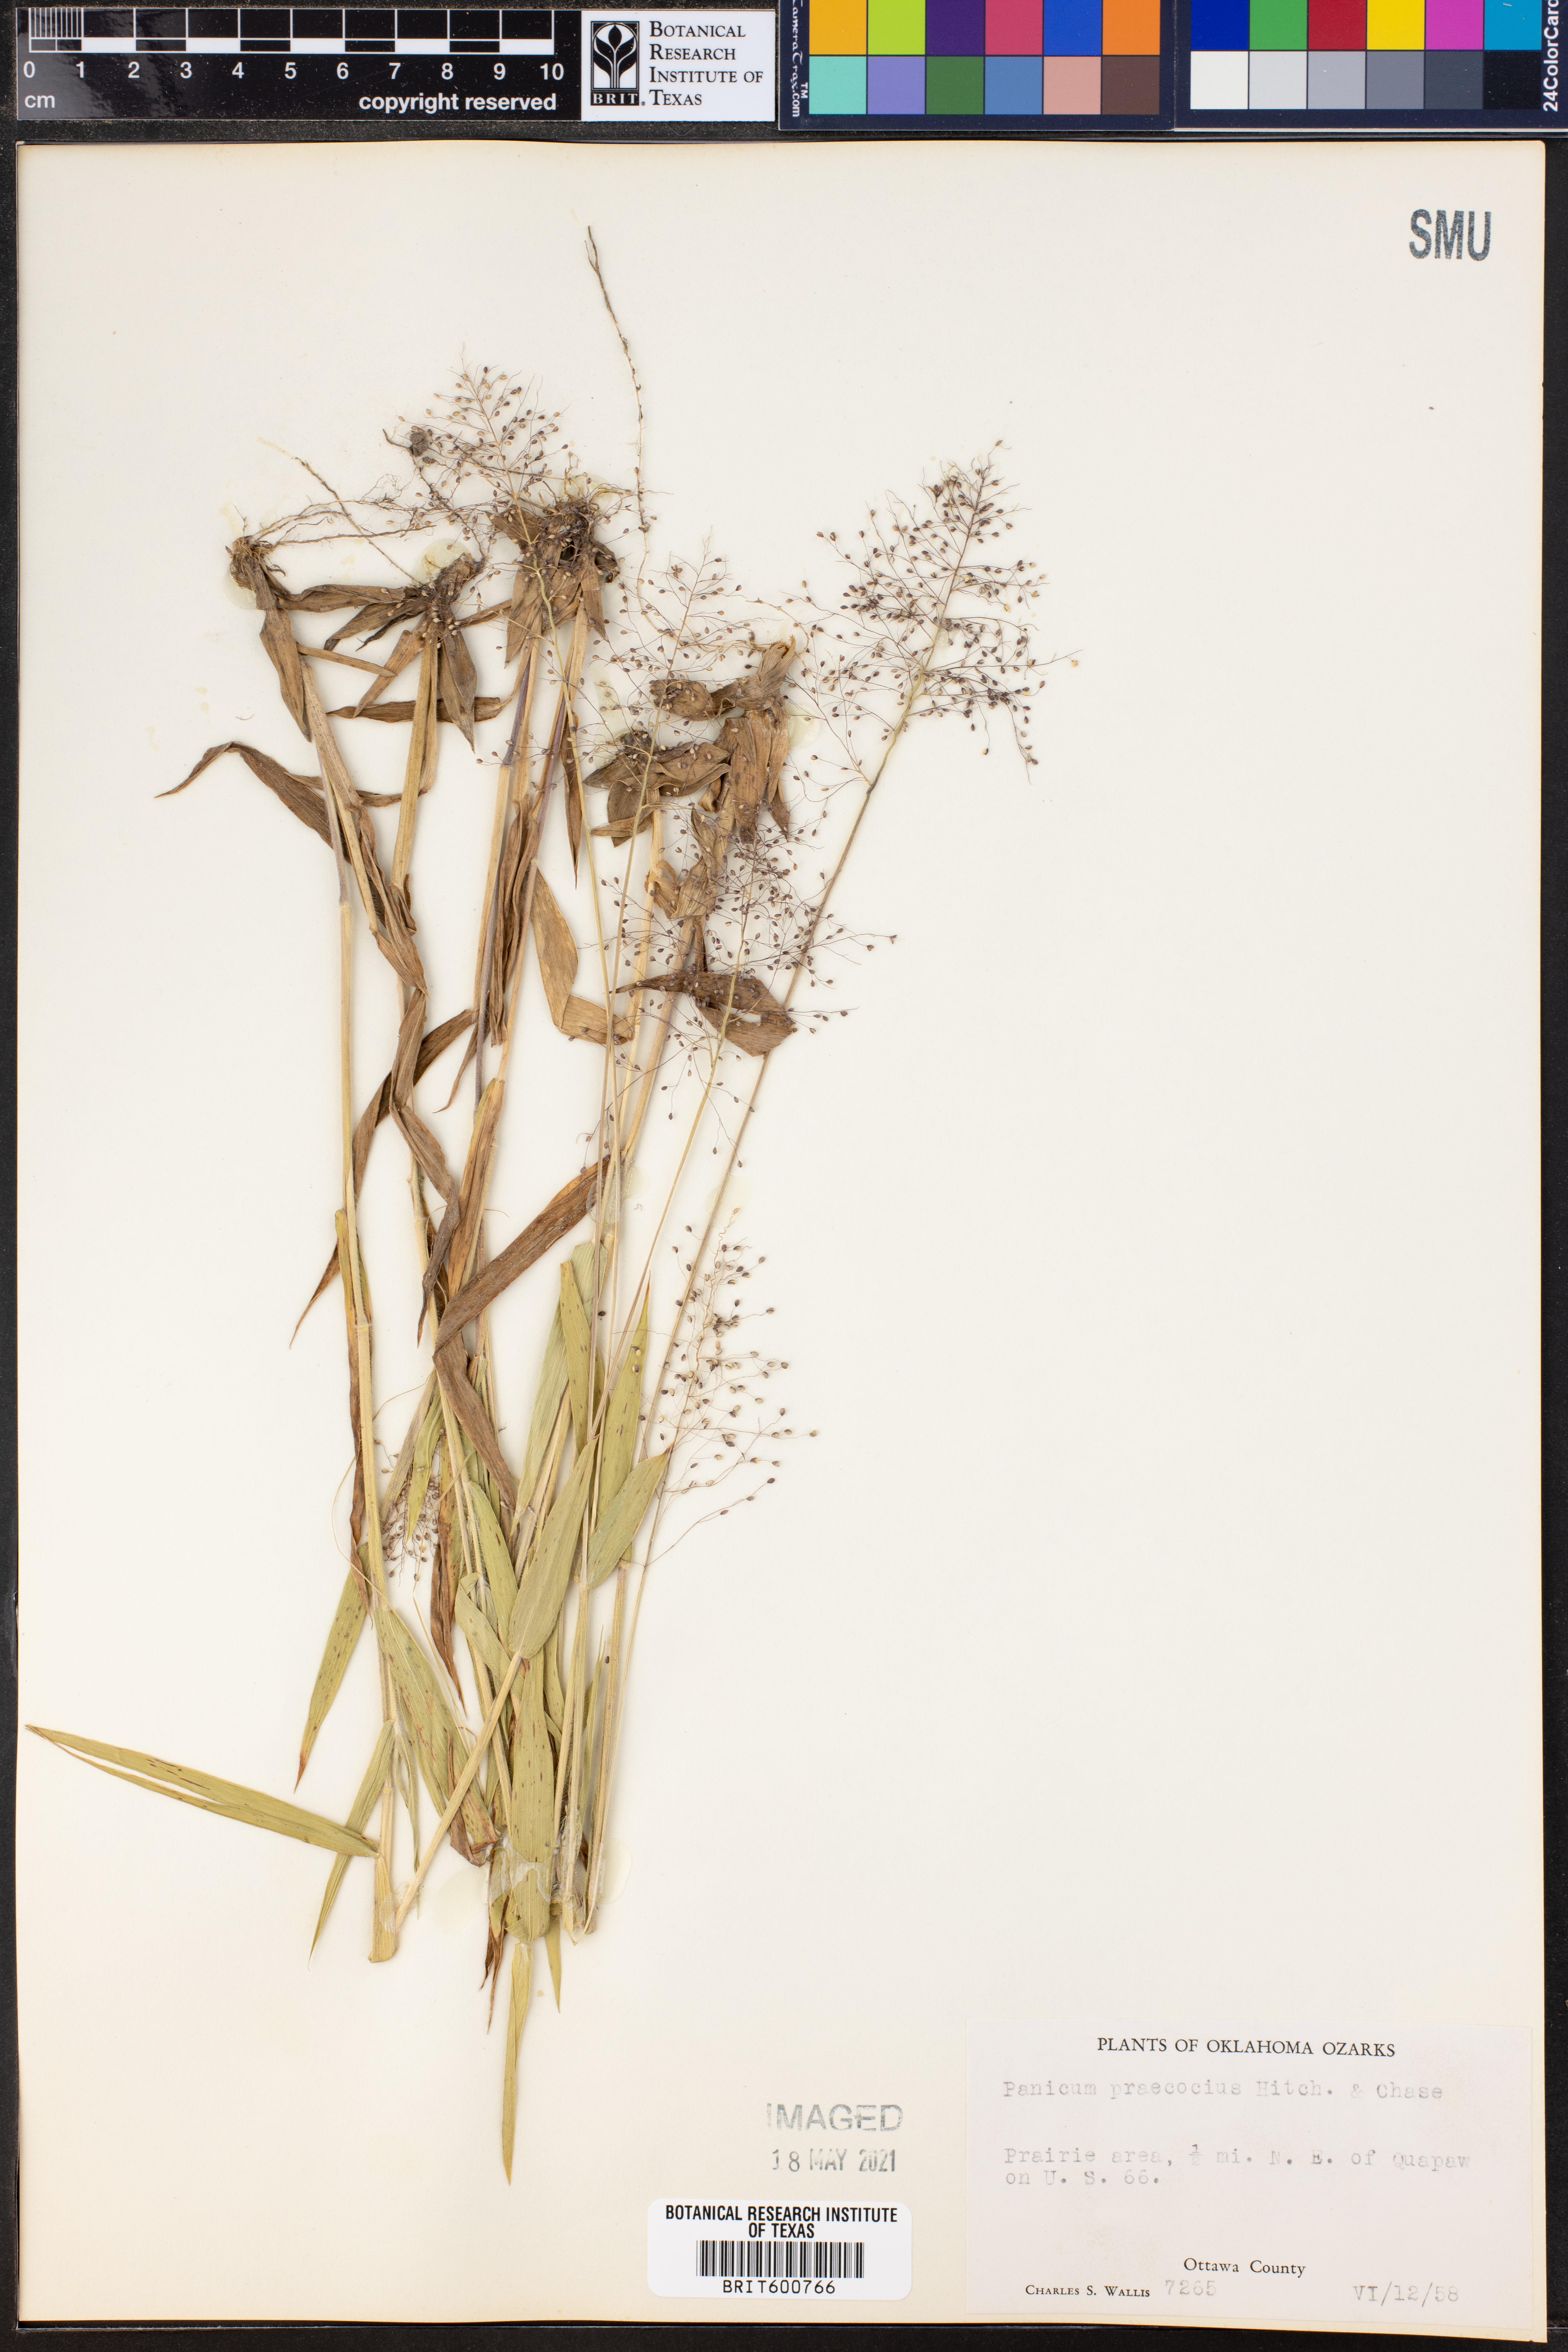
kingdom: Plantae
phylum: Tracheophyta
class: Liliopsida
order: Poales
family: Poaceae
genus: Dichanthelium
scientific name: Dichanthelium praecocius
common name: Early-branching panicgrass
